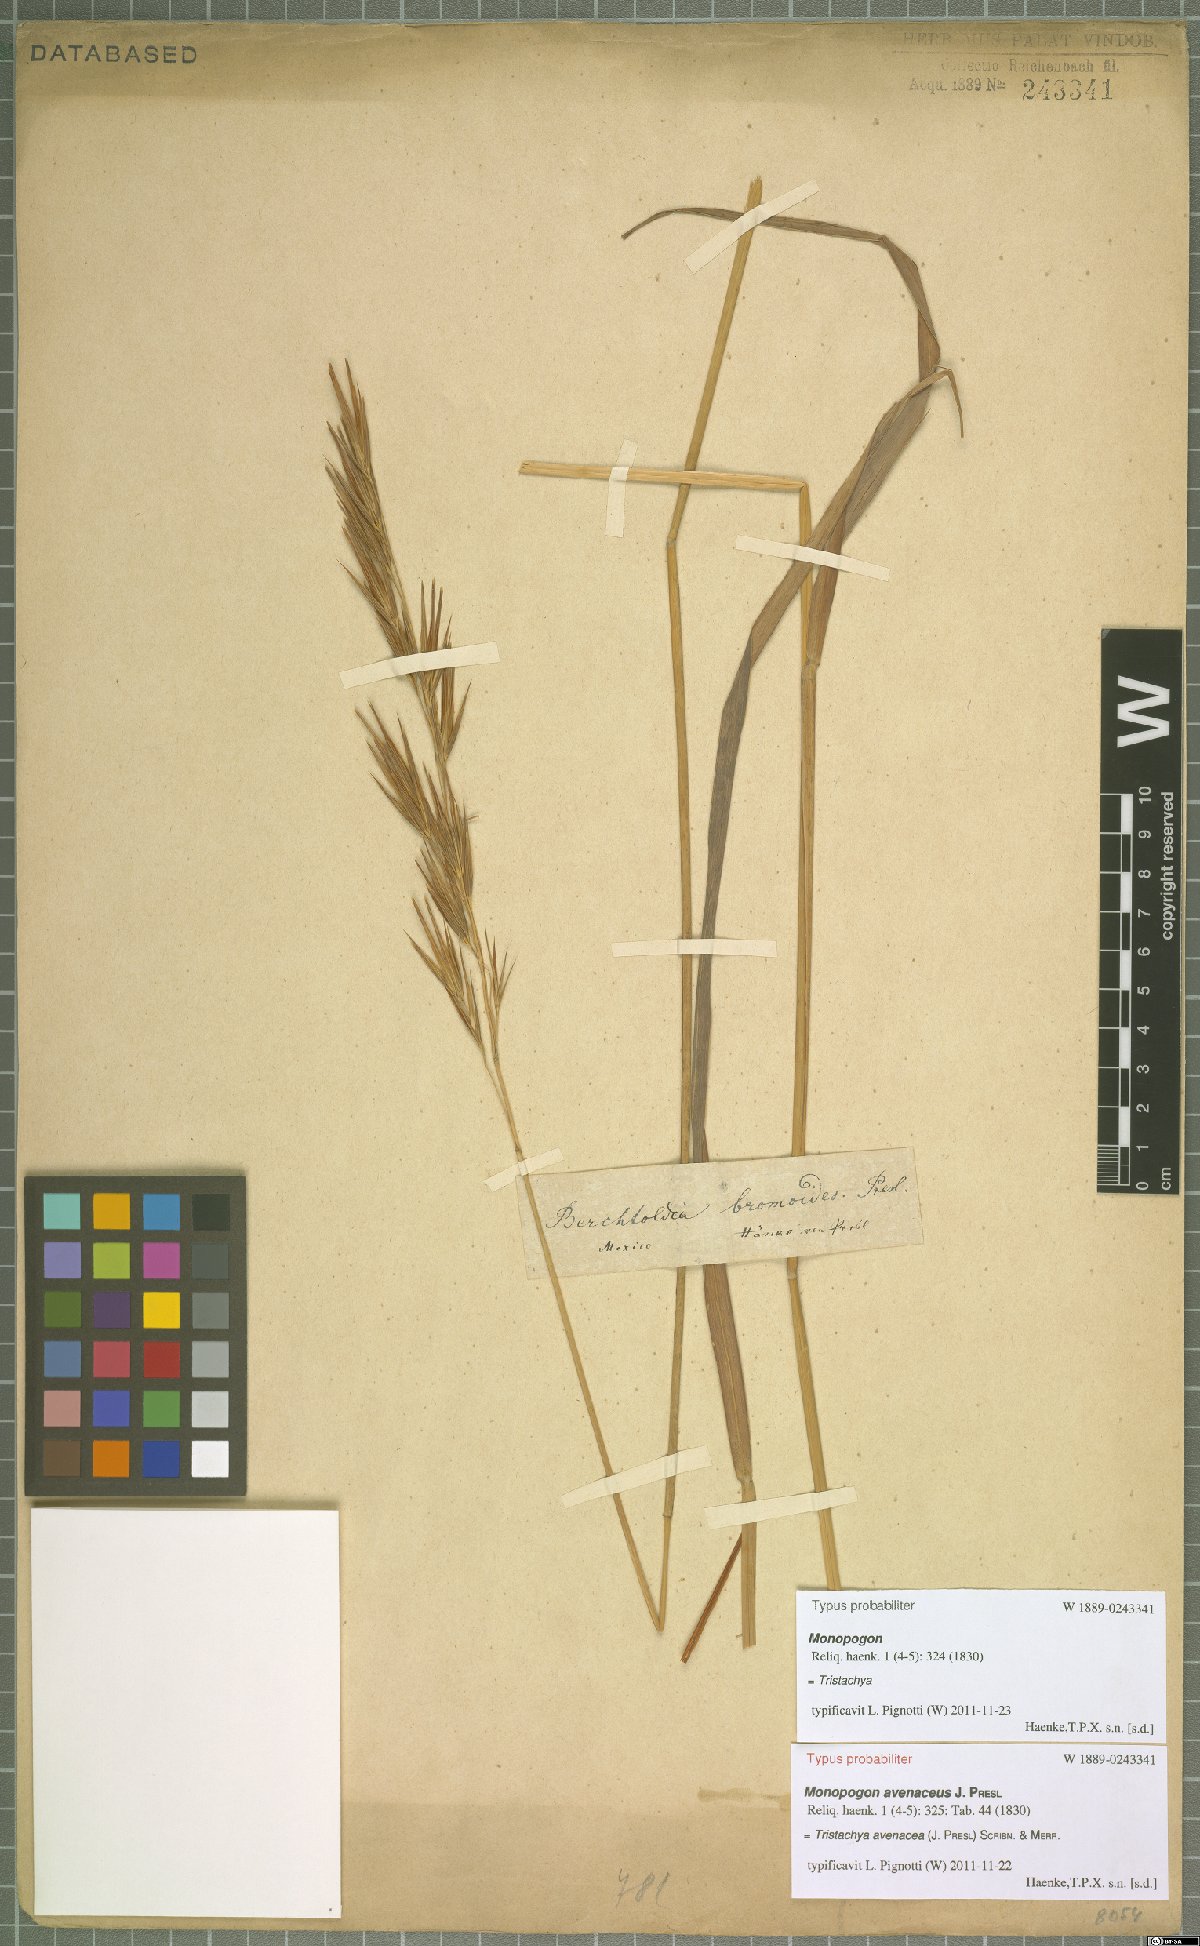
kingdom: Plantae
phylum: Tracheophyta
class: Liliopsida
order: Poales
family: Poaceae
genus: Tristachya
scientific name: Tristachya avenacea
